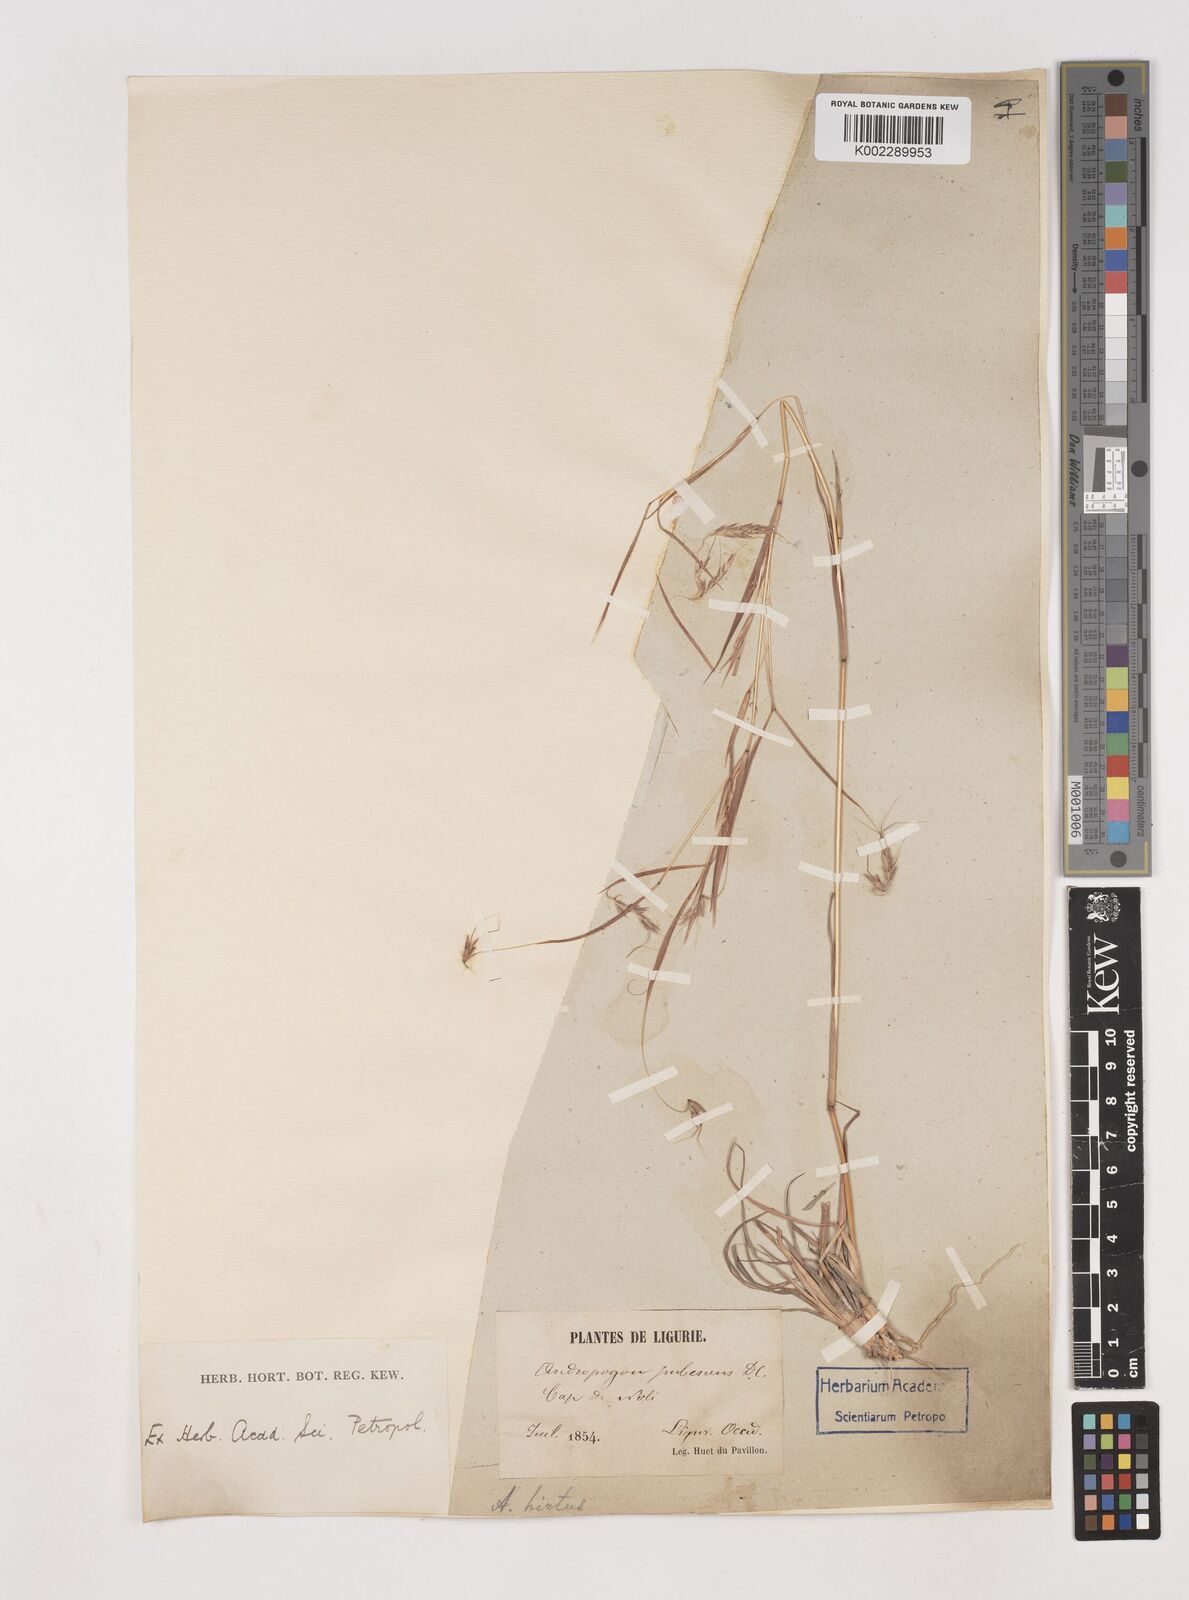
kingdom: Plantae
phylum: Tracheophyta
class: Liliopsida
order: Poales
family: Poaceae
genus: Hyparrhenia
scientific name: Hyparrhenia hirta
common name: Thatching grass
